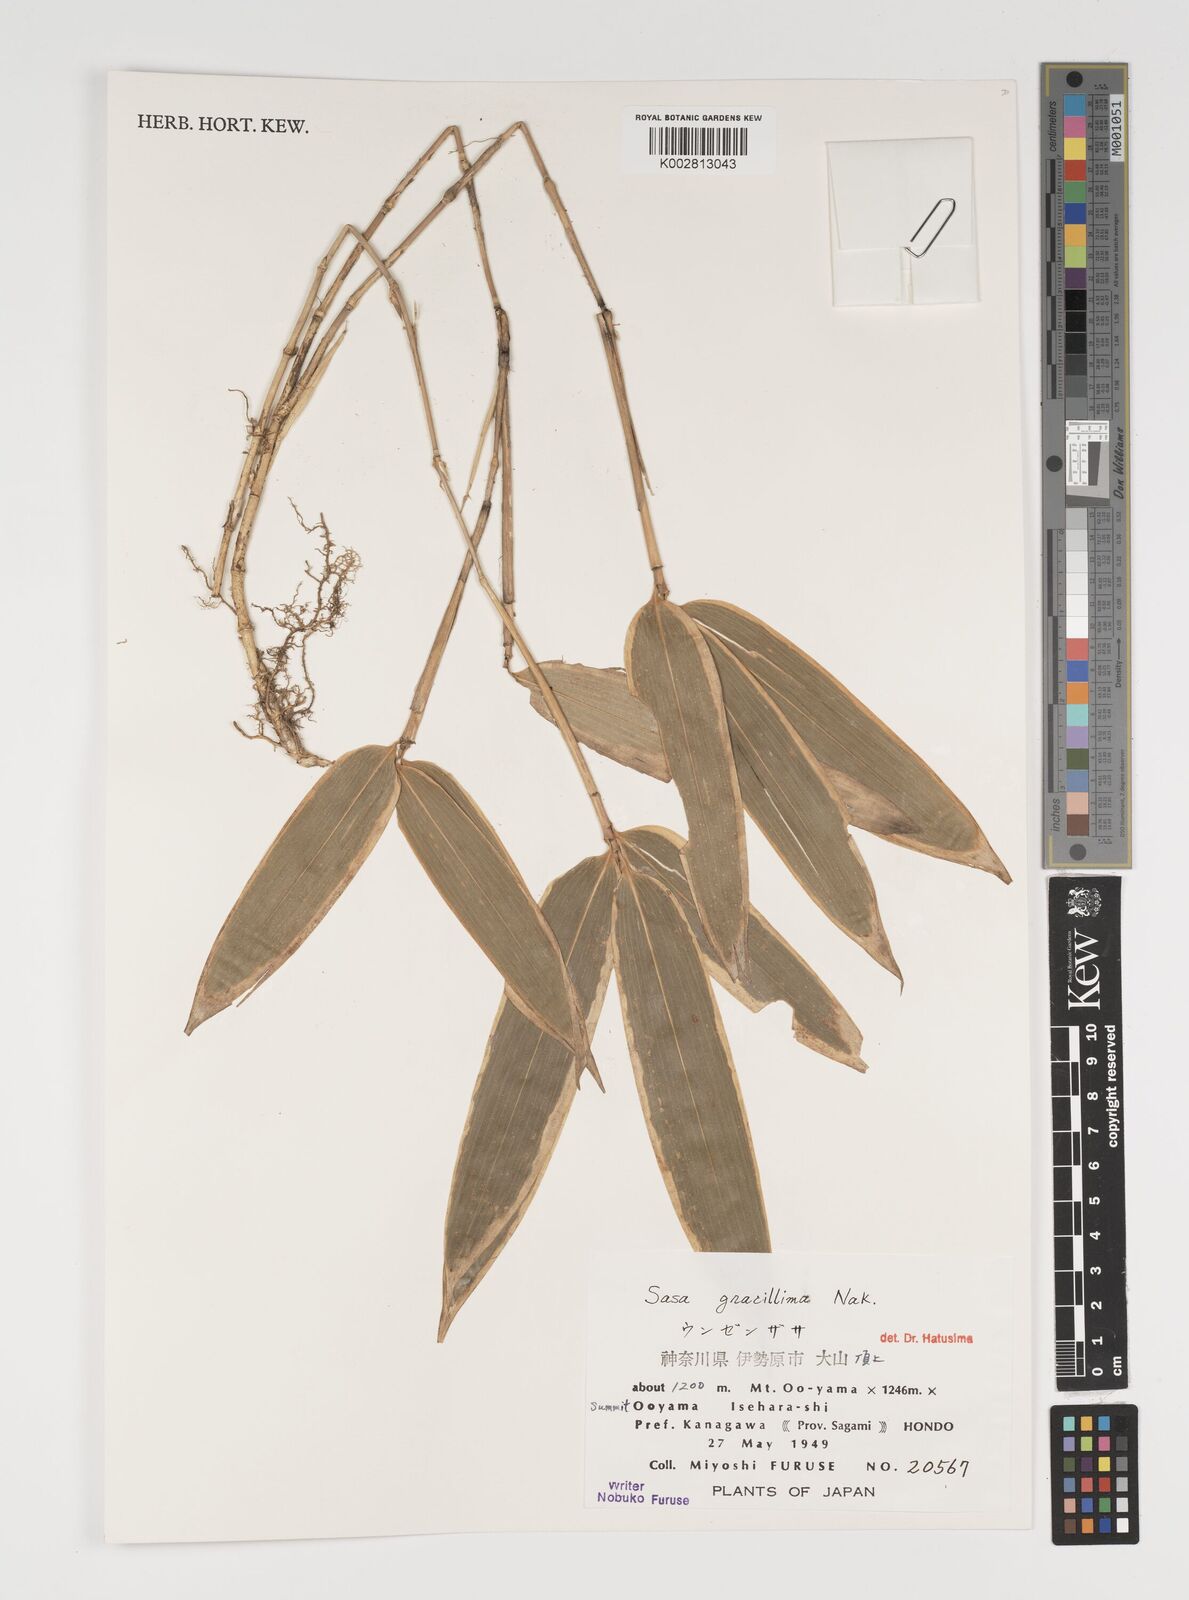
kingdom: Plantae
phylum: Tracheophyta
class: Liliopsida
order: Poales
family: Poaceae
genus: Sasa
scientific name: Sasa gracillima
